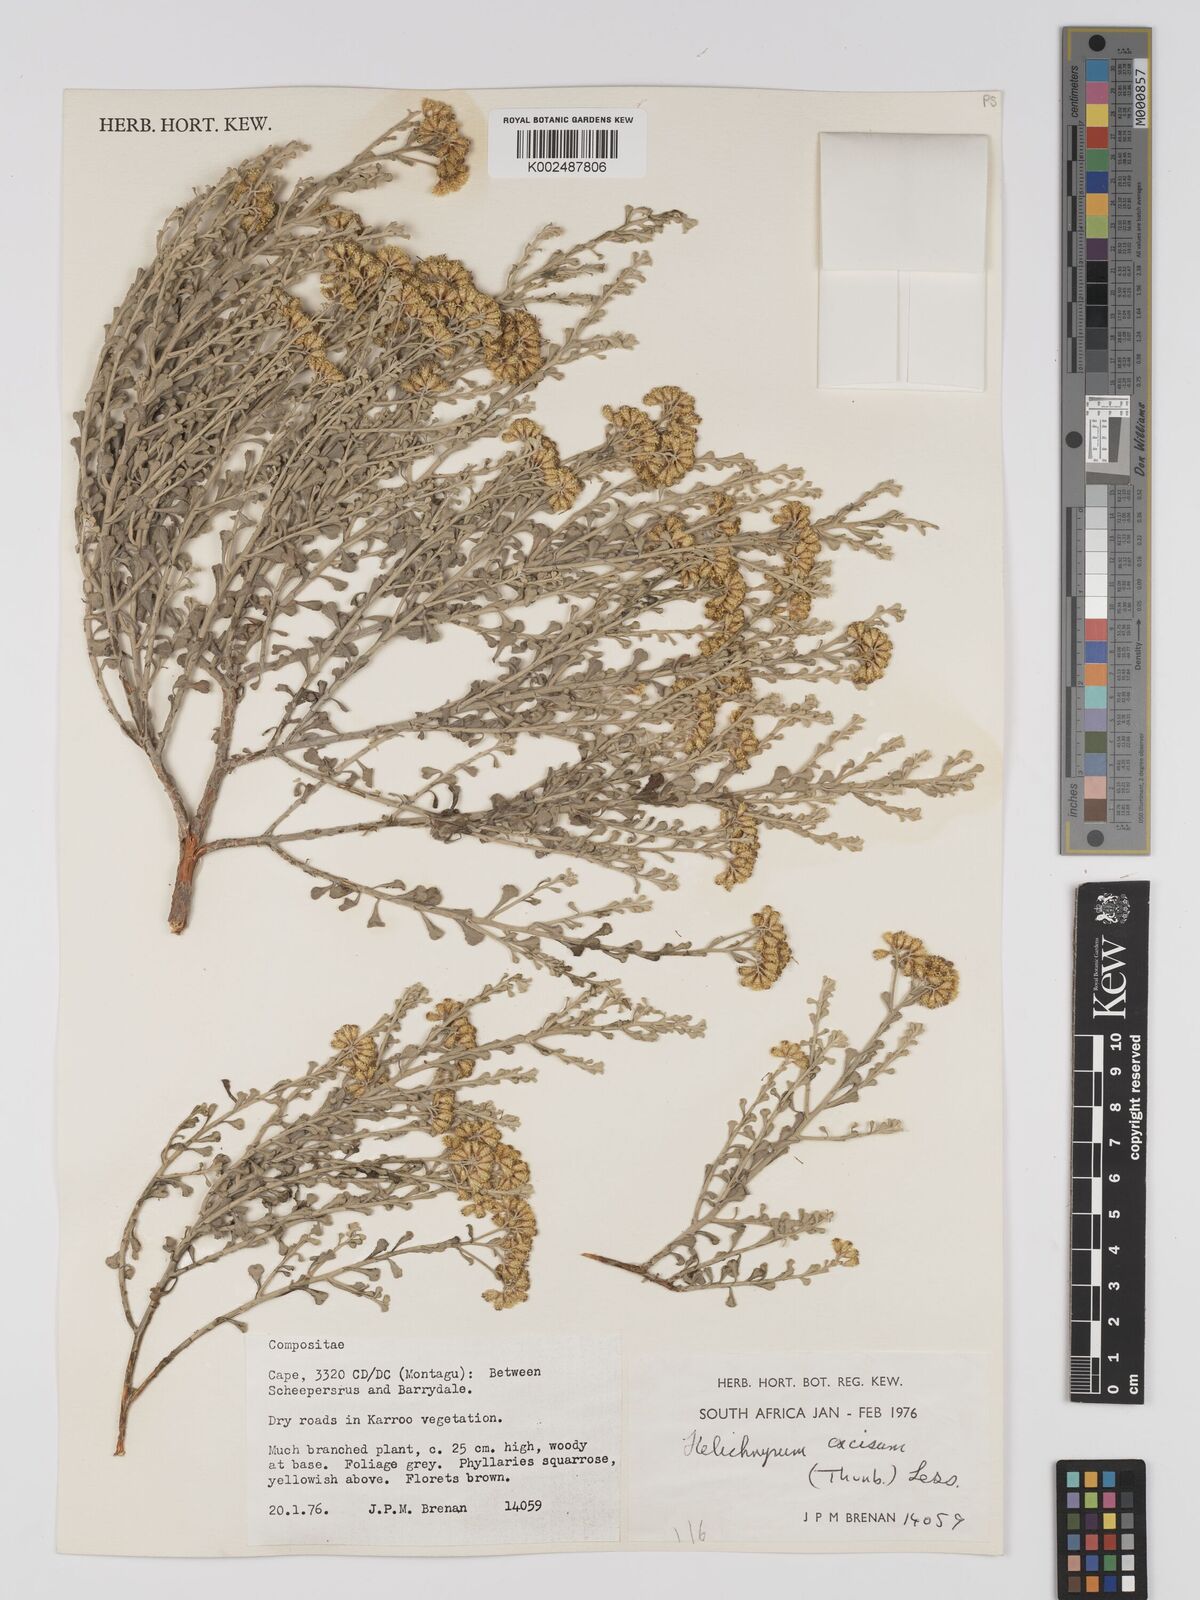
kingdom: Plantae
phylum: Tracheophyta
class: Magnoliopsida
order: Asterales
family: Asteraceae
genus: Helichrysum
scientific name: Helichrysum excisum
